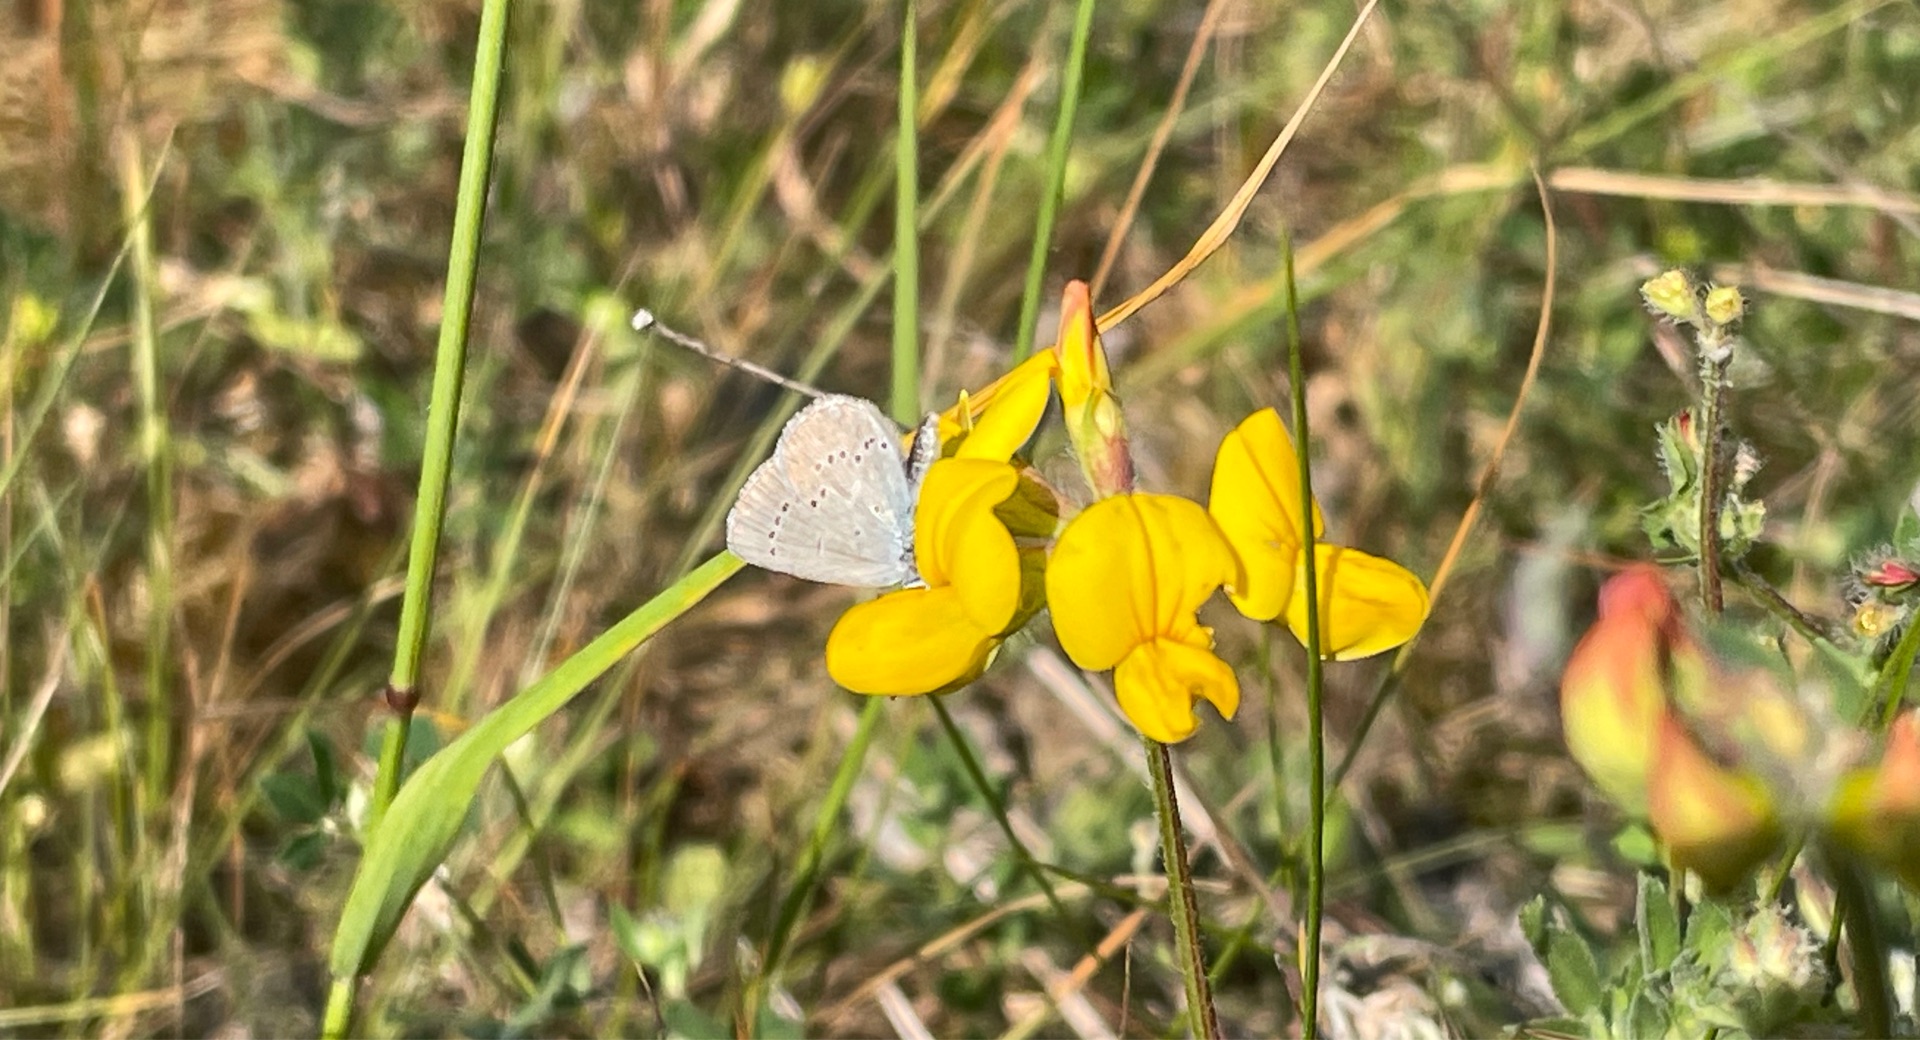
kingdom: Animalia
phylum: Arthropoda
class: Insecta
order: Lepidoptera
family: Lycaenidae
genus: Cupido
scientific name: Cupido minimus
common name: Dværgblåfugl
